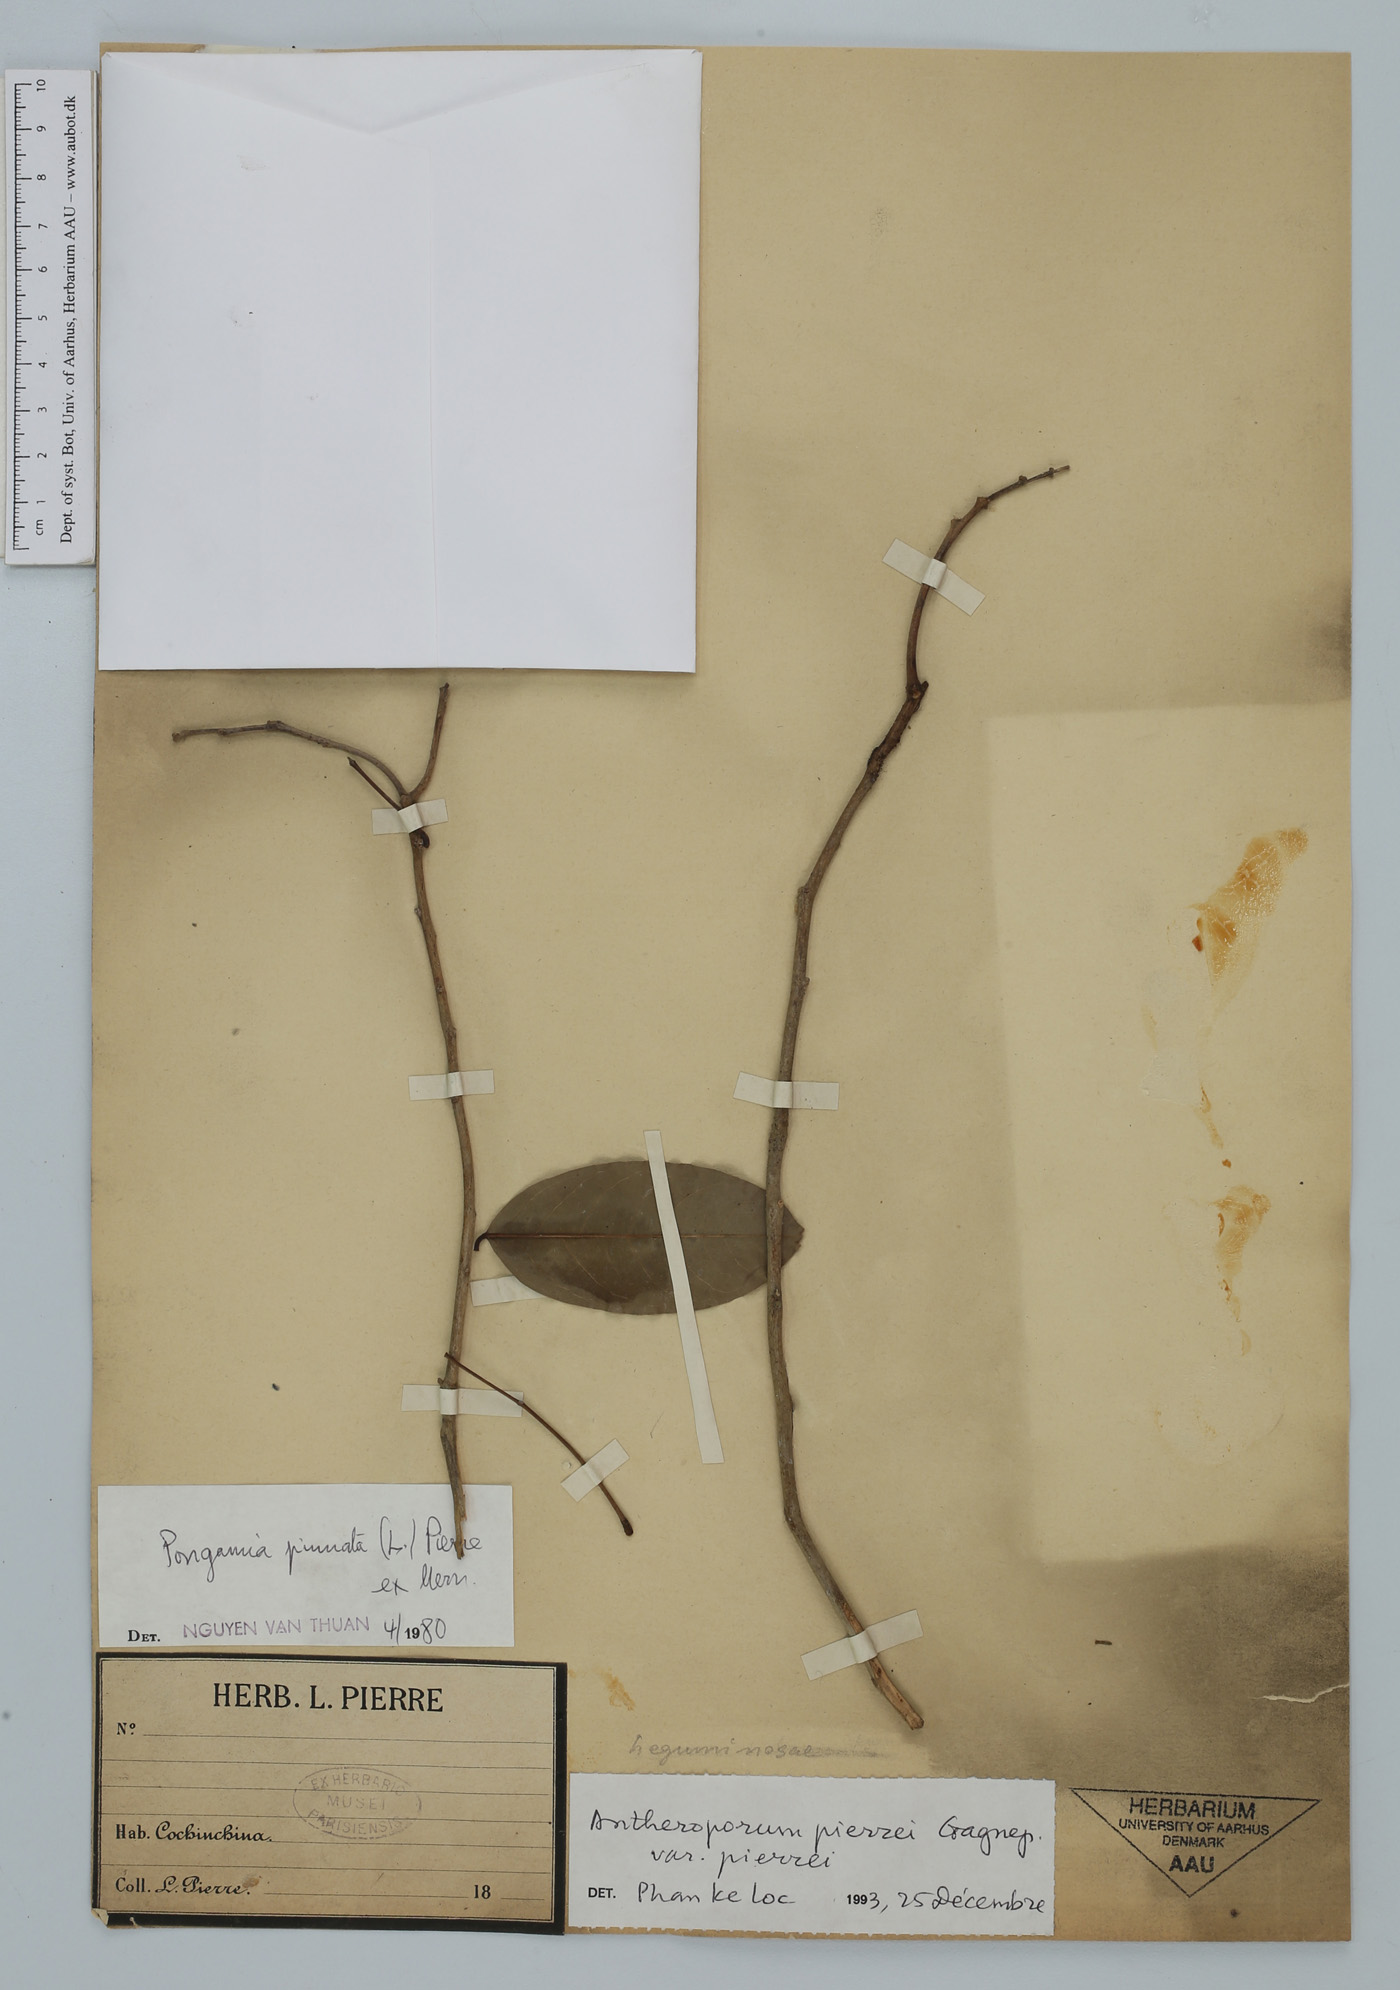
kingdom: Plantae
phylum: Tracheophyta
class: Magnoliopsida
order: Fabales
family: Fabaceae
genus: Antheroporum
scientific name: Antheroporum pierrei
